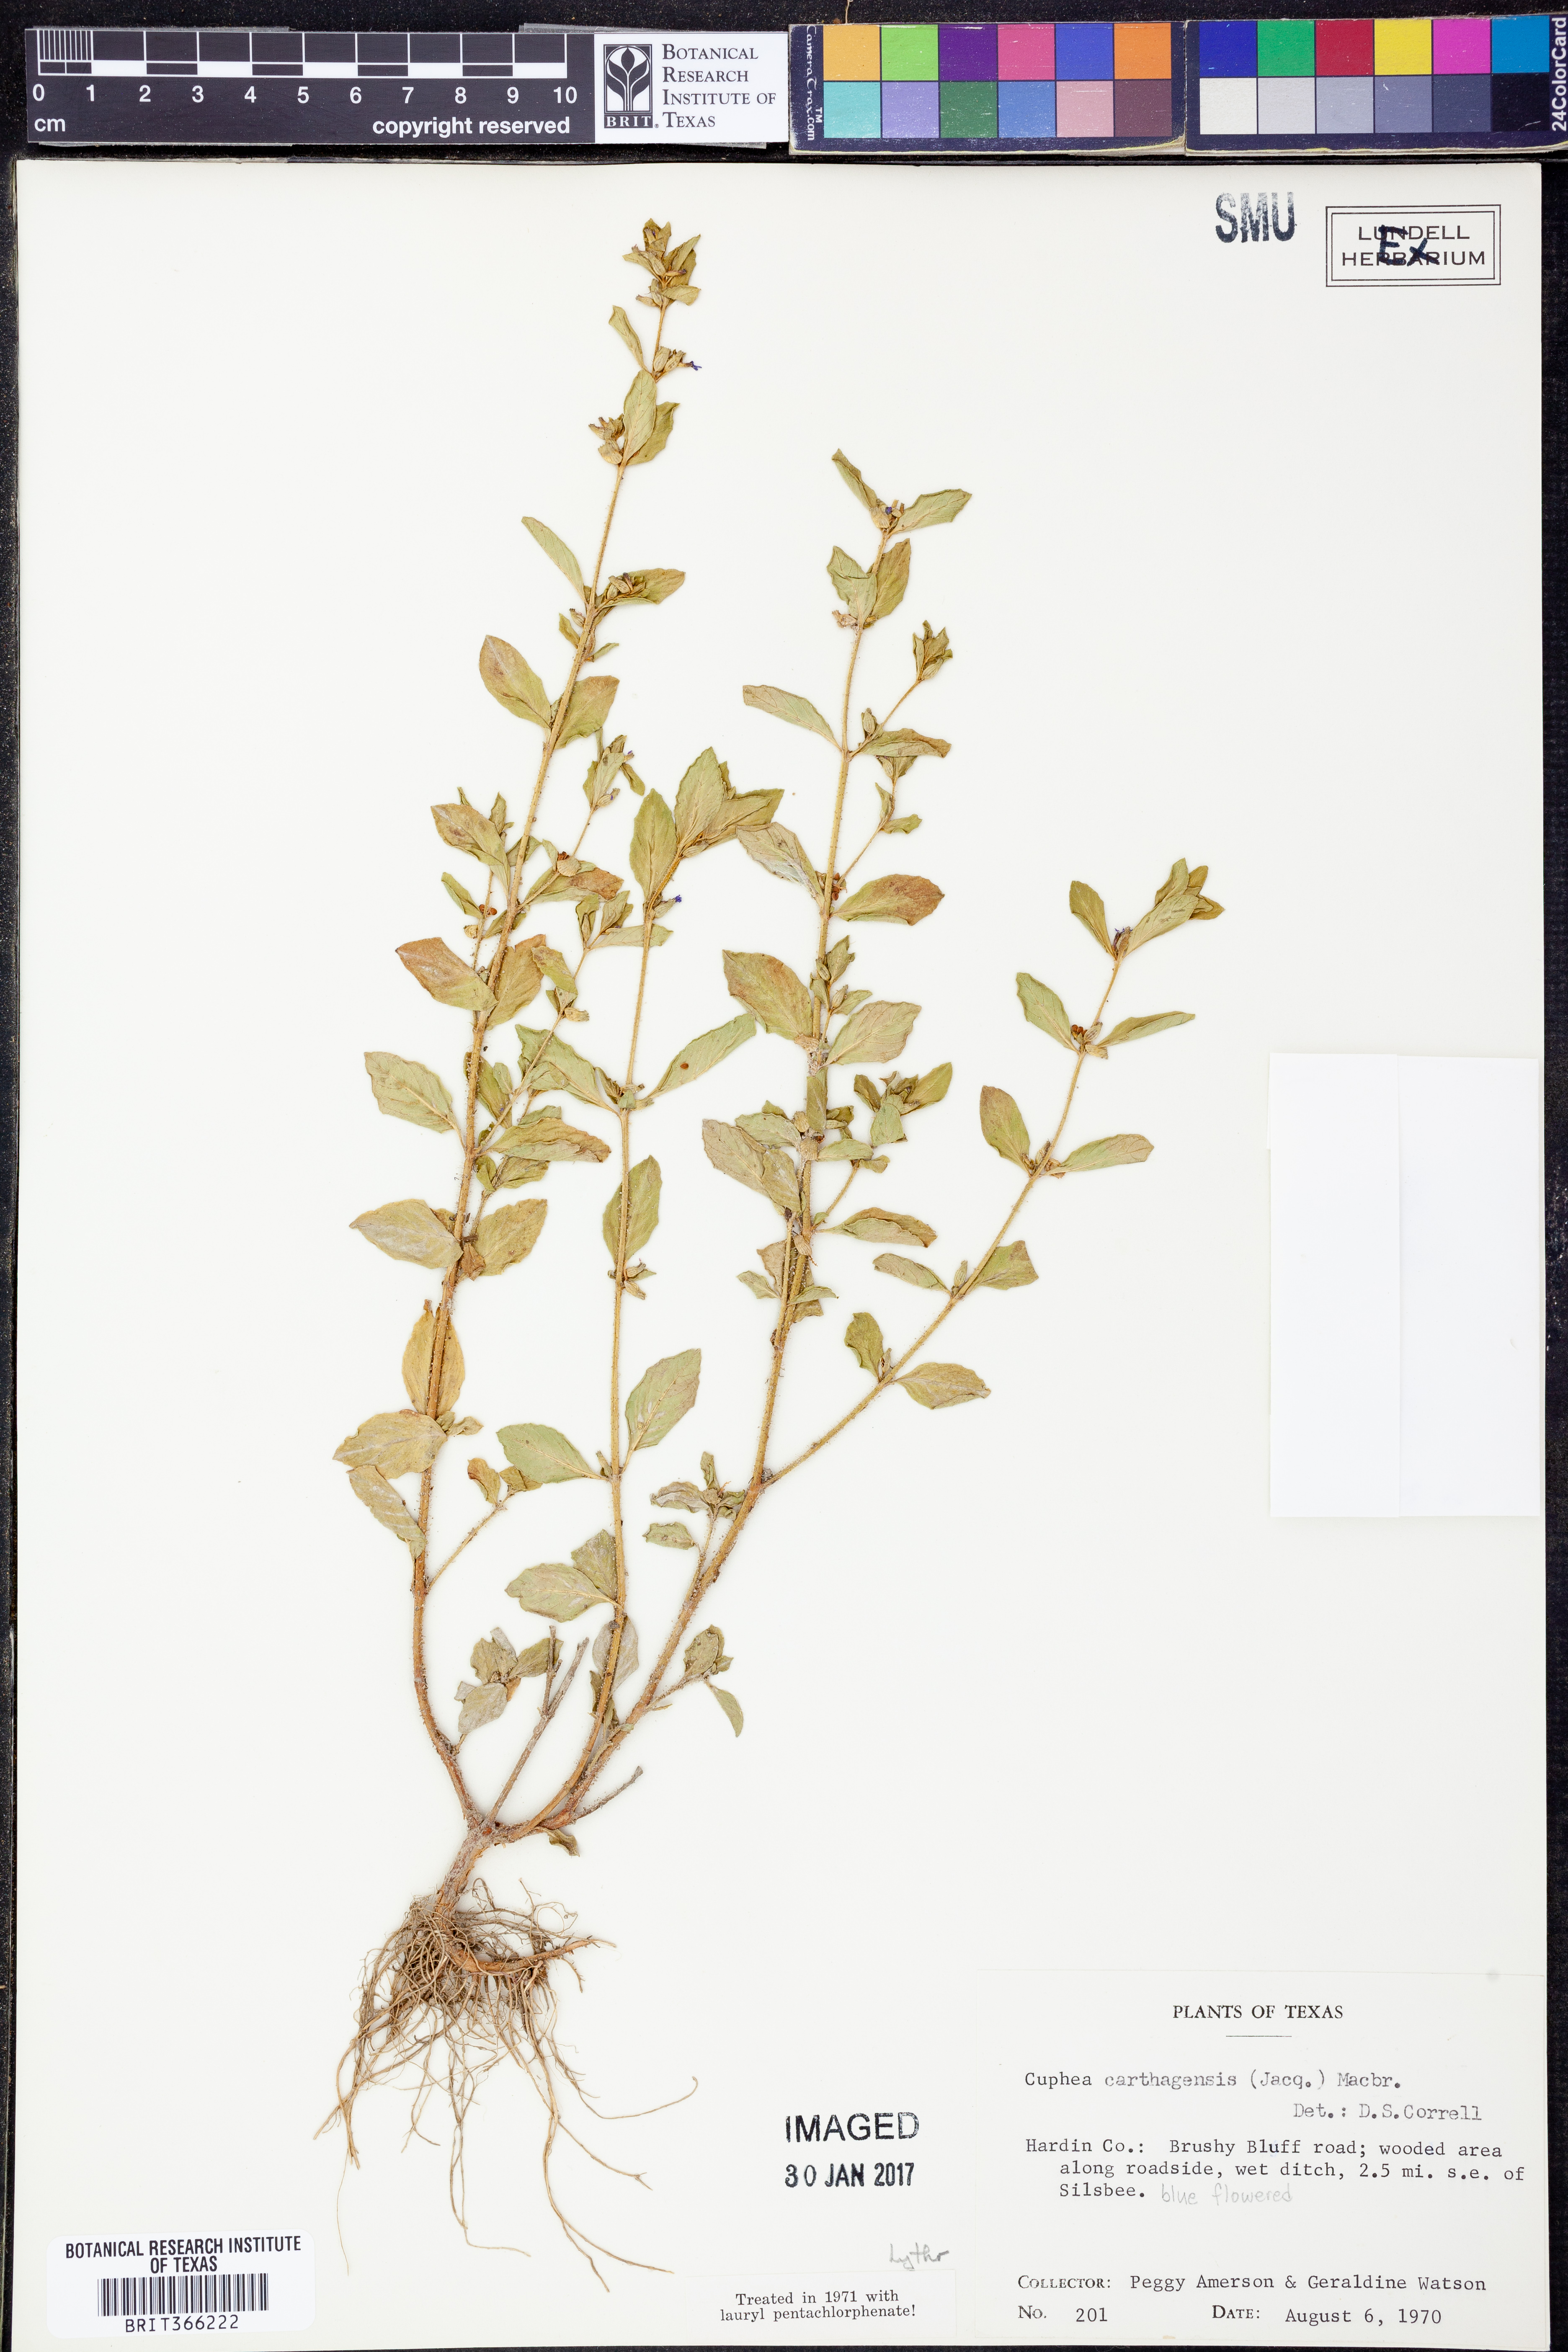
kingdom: Plantae
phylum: Tracheophyta
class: Magnoliopsida
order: Myrtales
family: Lythraceae
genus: Cuphea
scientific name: Cuphea carthagenensis
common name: Colombian waxweed
